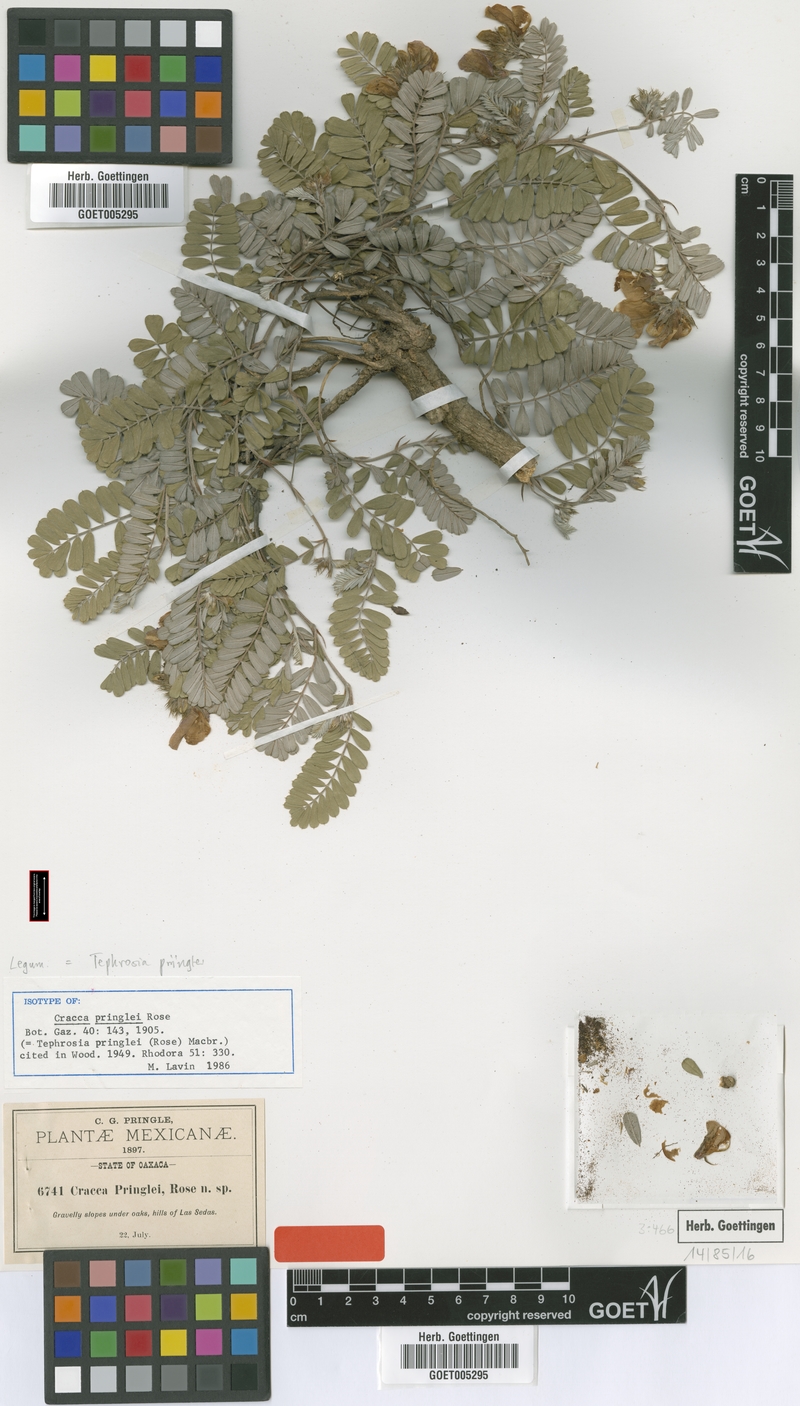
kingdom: Plantae
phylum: Tracheophyta
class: Magnoliopsida
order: Fabales
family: Fabaceae
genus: Tephrosia
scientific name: Tephrosia pringlei
